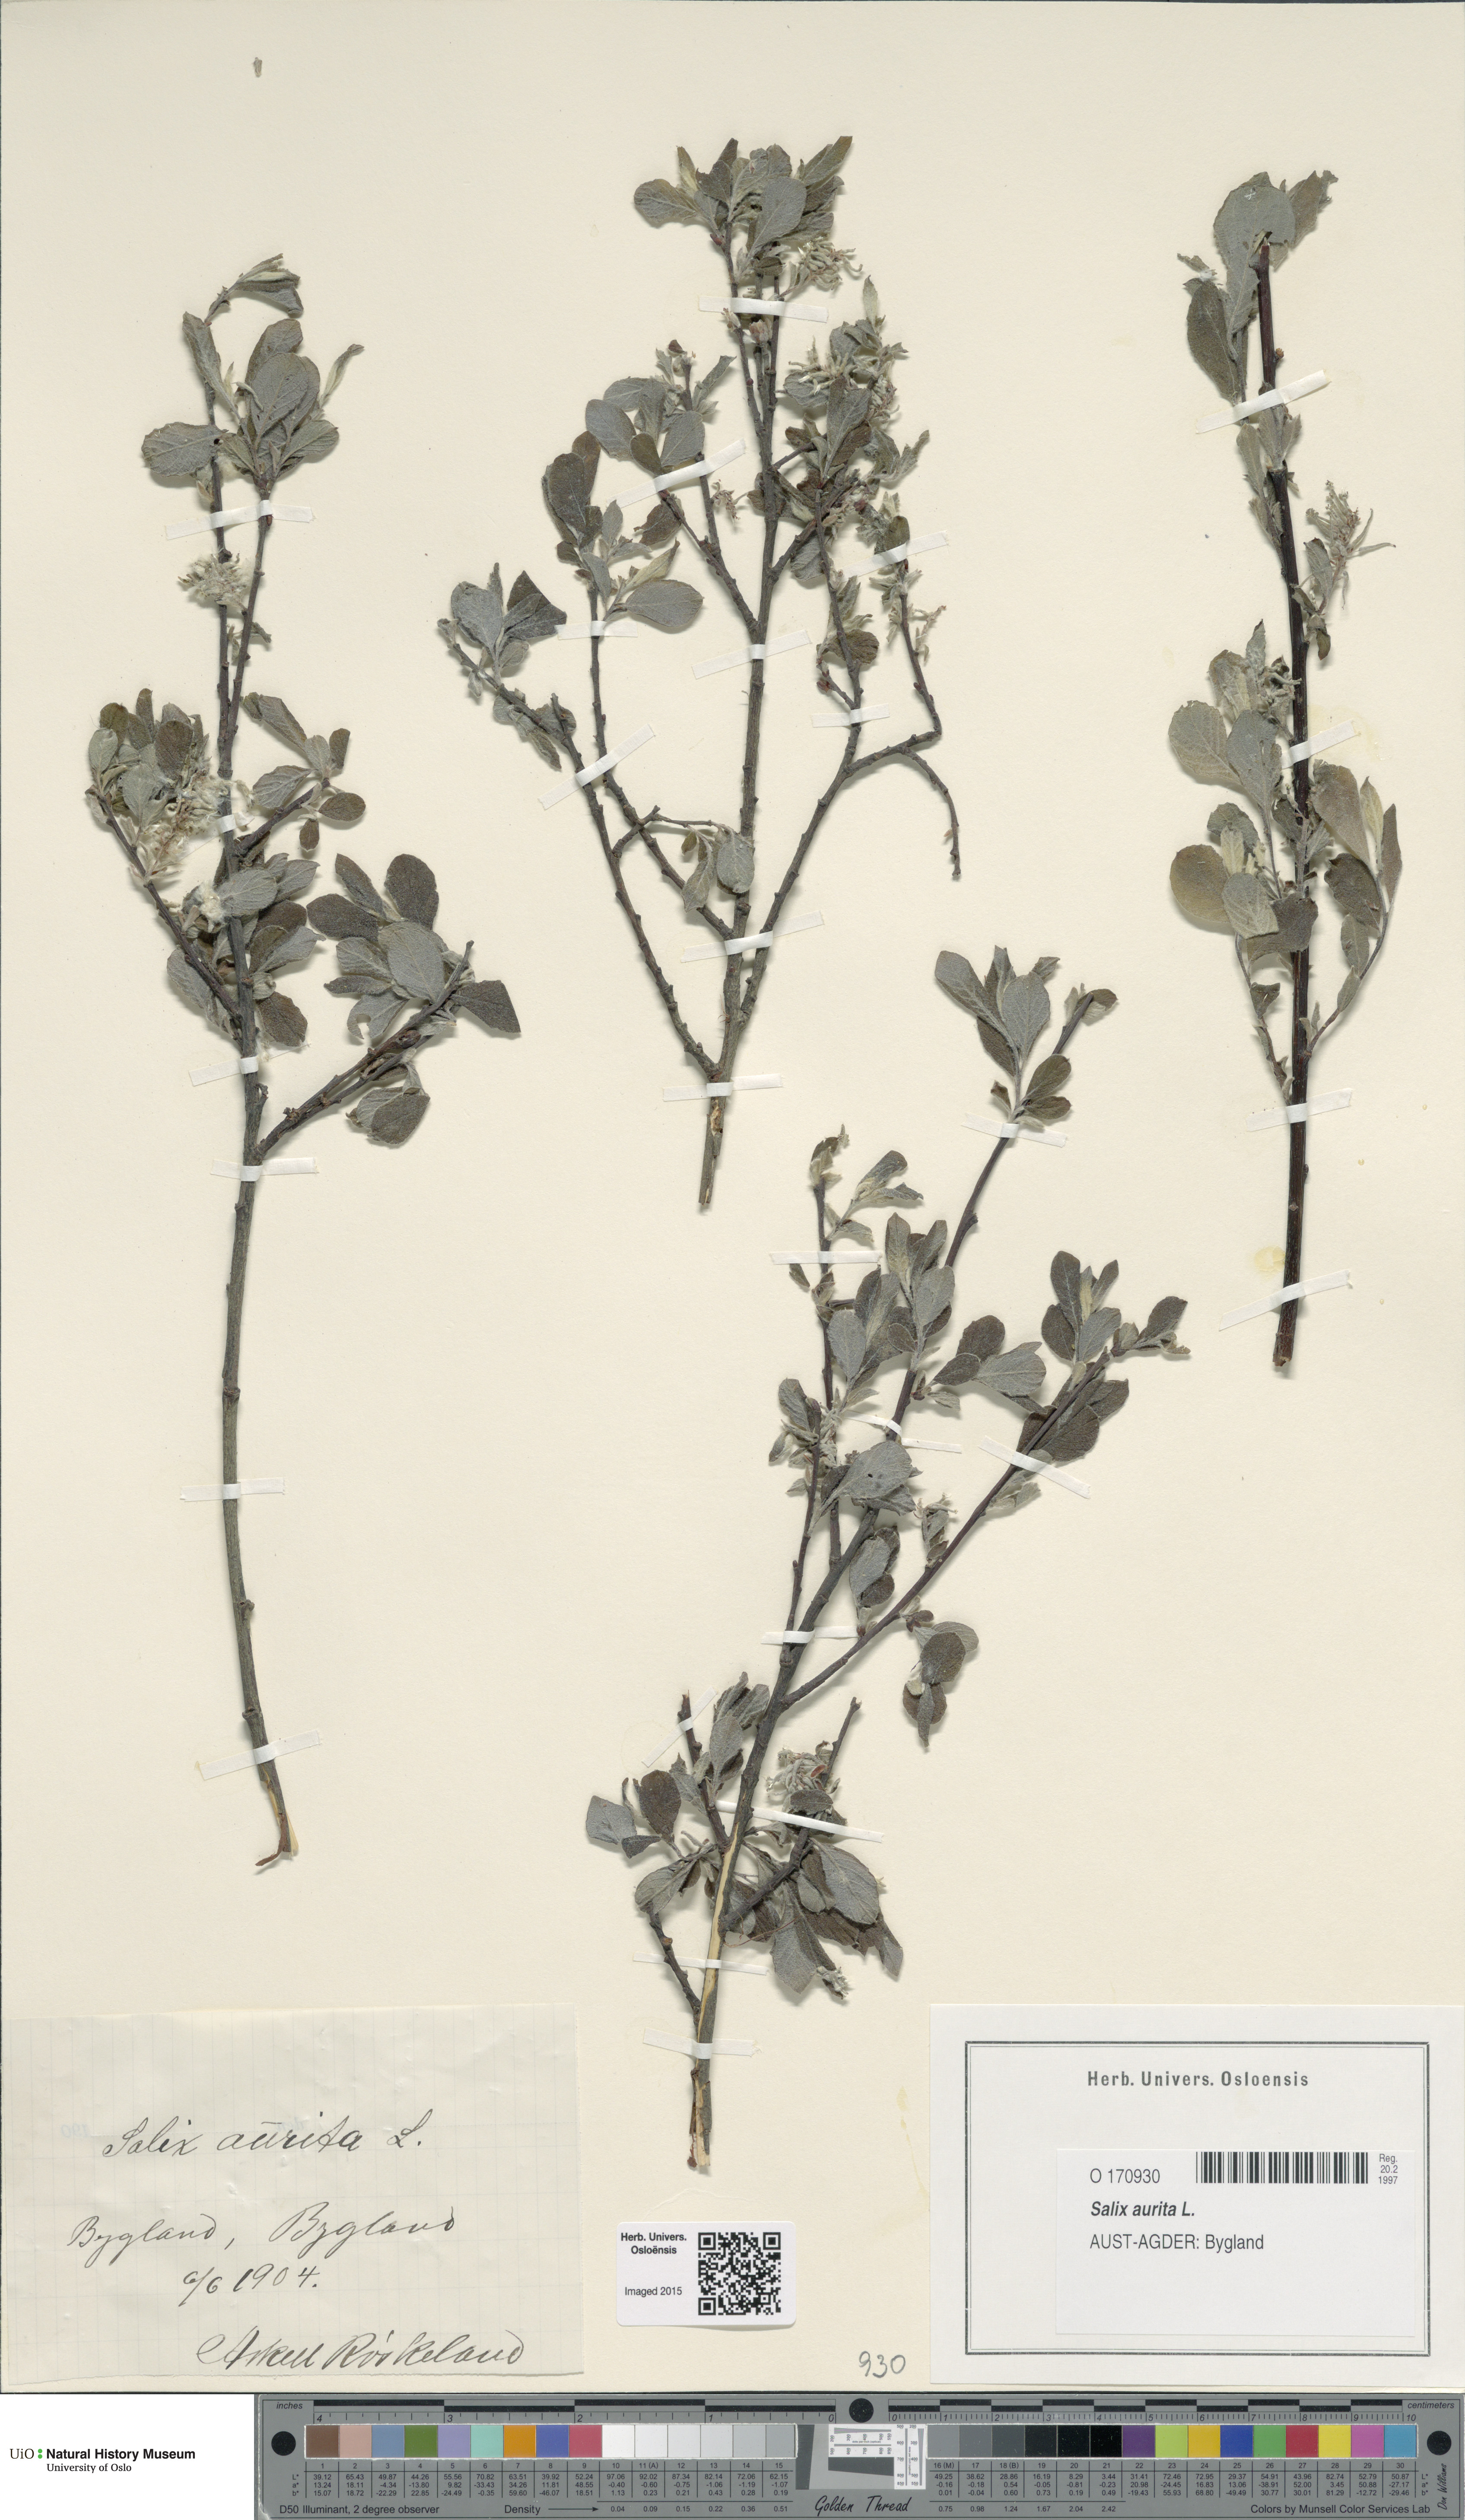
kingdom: Plantae
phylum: Tracheophyta
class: Magnoliopsida
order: Malpighiales
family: Salicaceae
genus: Salix
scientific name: Salix aurita
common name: Eared willow
